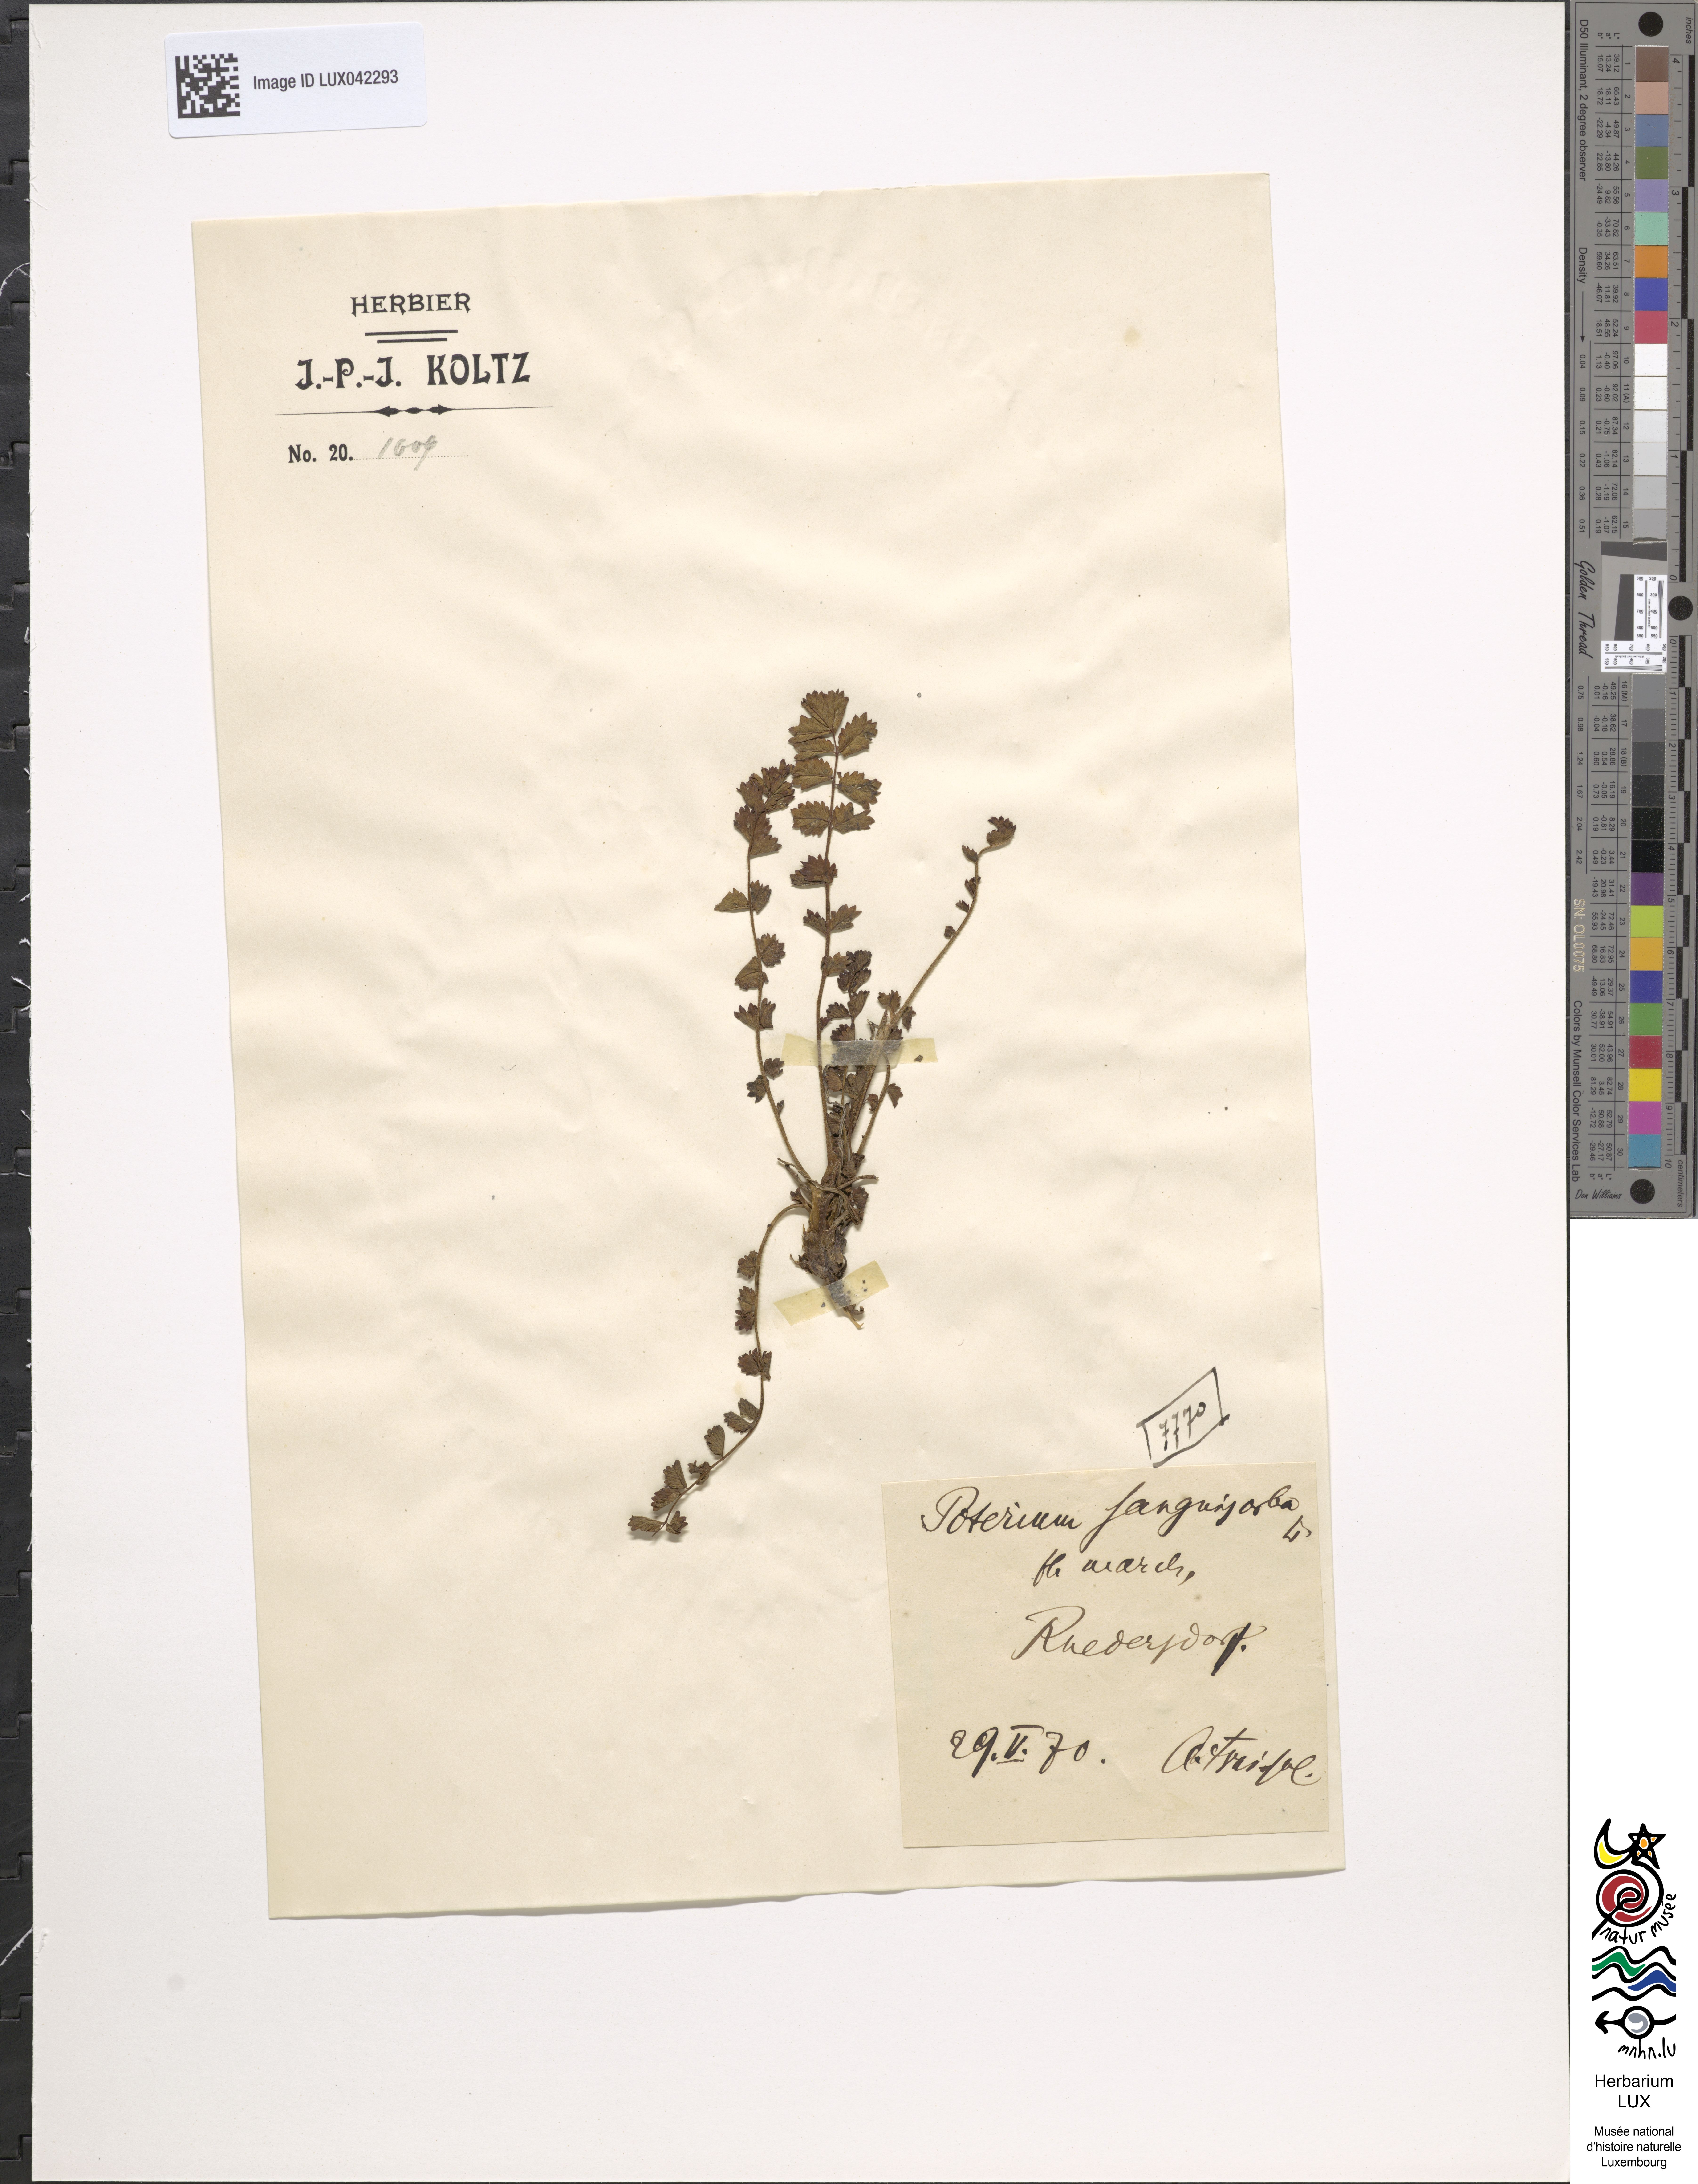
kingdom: Plantae
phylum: Tracheophyta
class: Magnoliopsida
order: Rosales
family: Rosaceae
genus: Poterium
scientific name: Poterium sanguisorba
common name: Salad burnet
